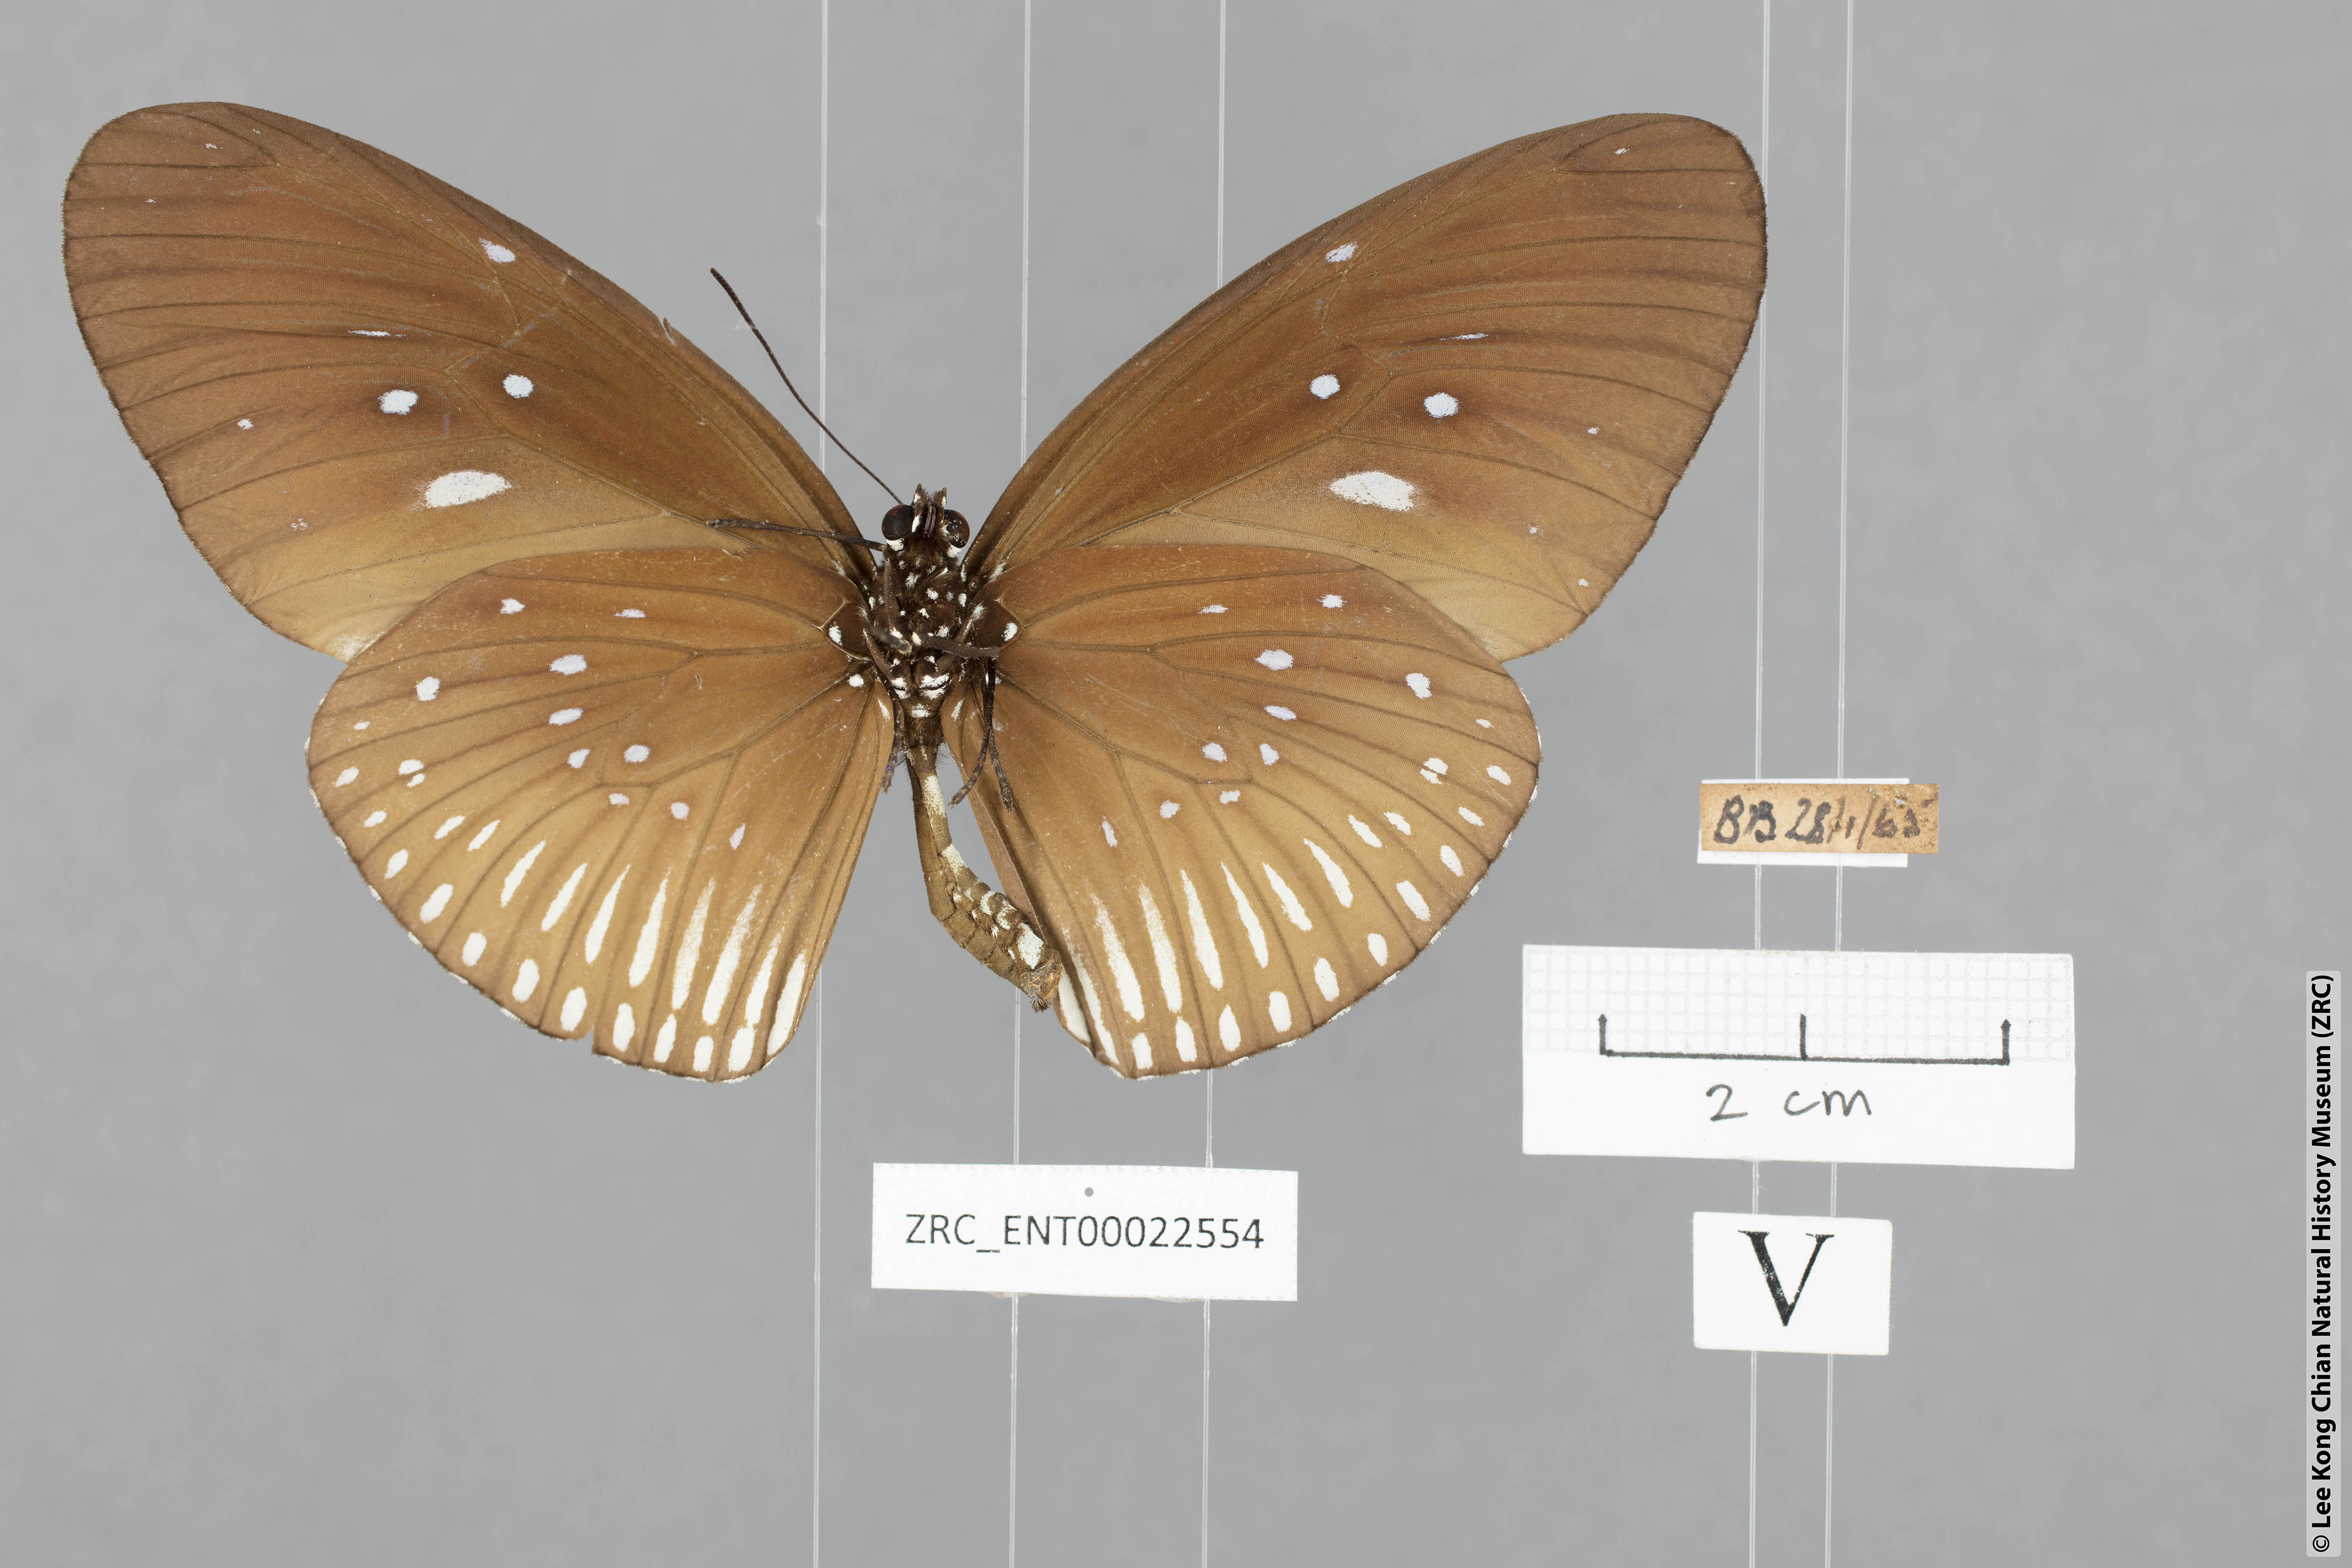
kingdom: Animalia
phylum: Arthropoda
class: Insecta
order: Lepidoptera
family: Nymphalidae
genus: Euploea
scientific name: Euploea eyndhovii
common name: Striped black crow butterfly
